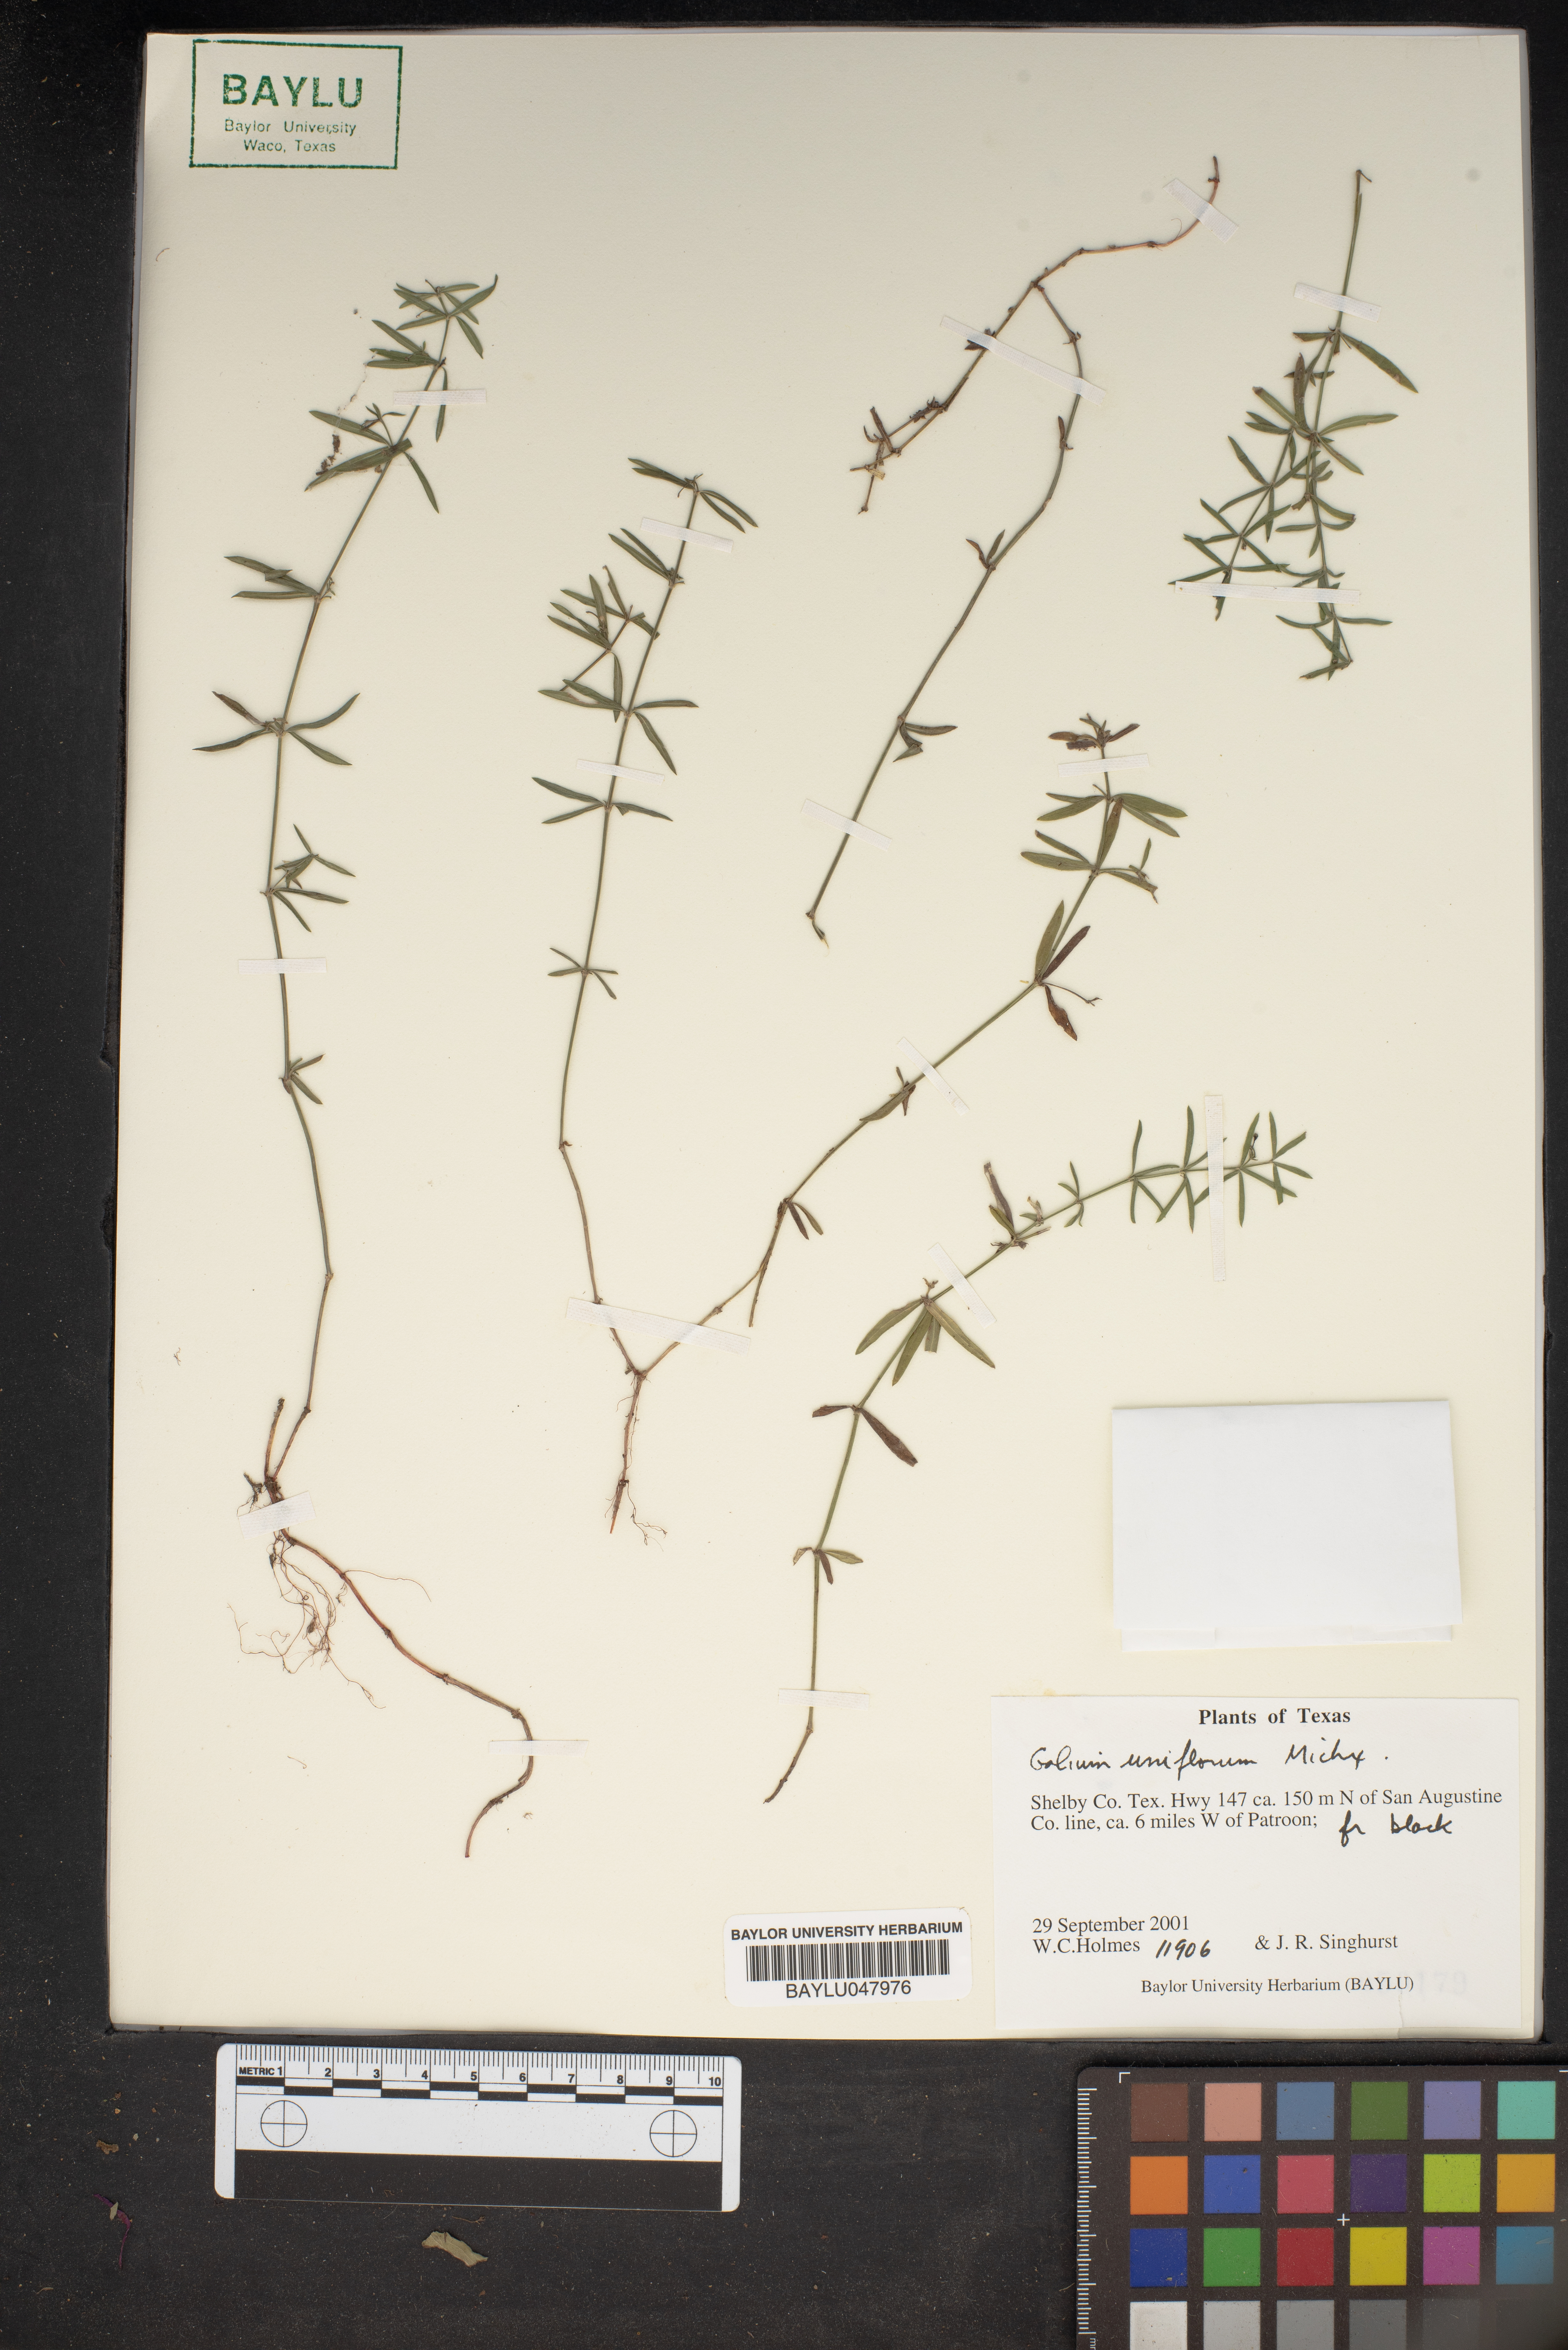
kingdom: Plantae
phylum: Tracheophyta
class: Magnoliopsida
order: Gentianales
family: Rubiaceae
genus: Galium
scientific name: Galium uniflorum
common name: One-flower bedstraw
